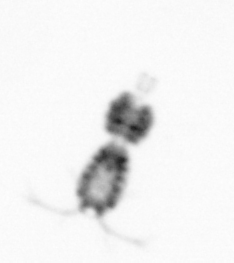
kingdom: Animalia
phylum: Arthropoda
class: Copepoda
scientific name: Copepoda
